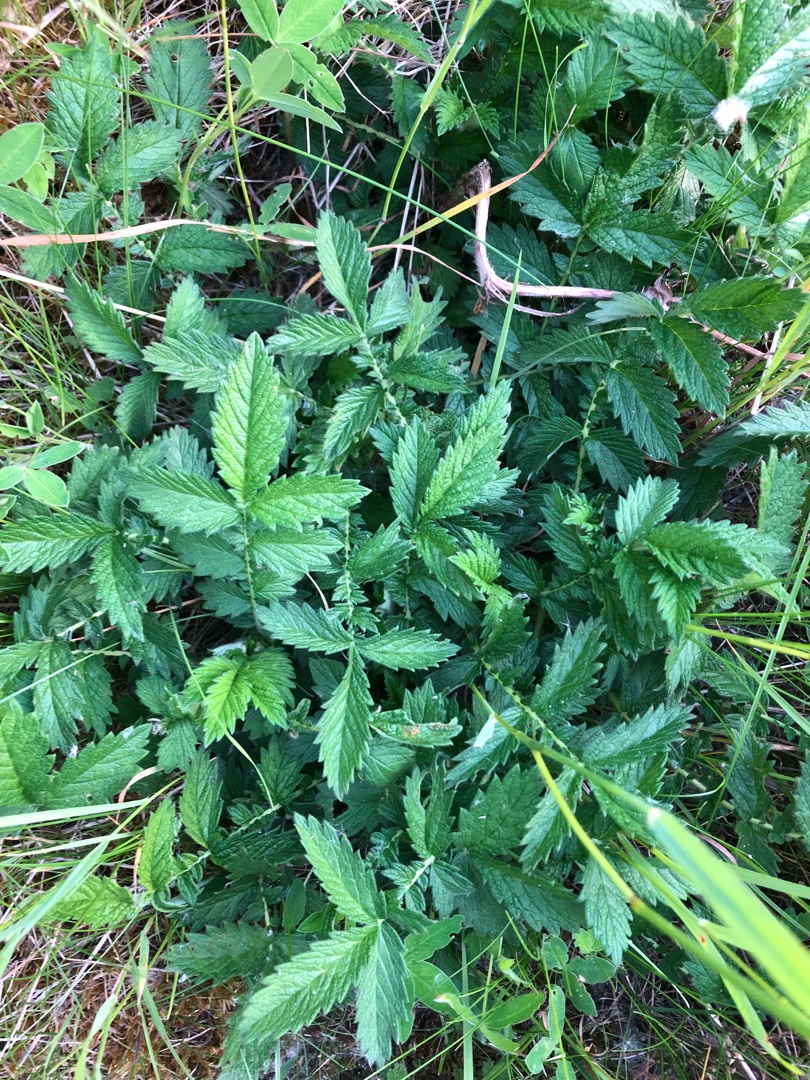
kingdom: Plantae
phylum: Tracheophyta
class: Magnoliopsida
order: Rosales
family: Rosaceae
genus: Agrimonia
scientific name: Agrimonia eupatoria
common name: Almindelig agermåne
